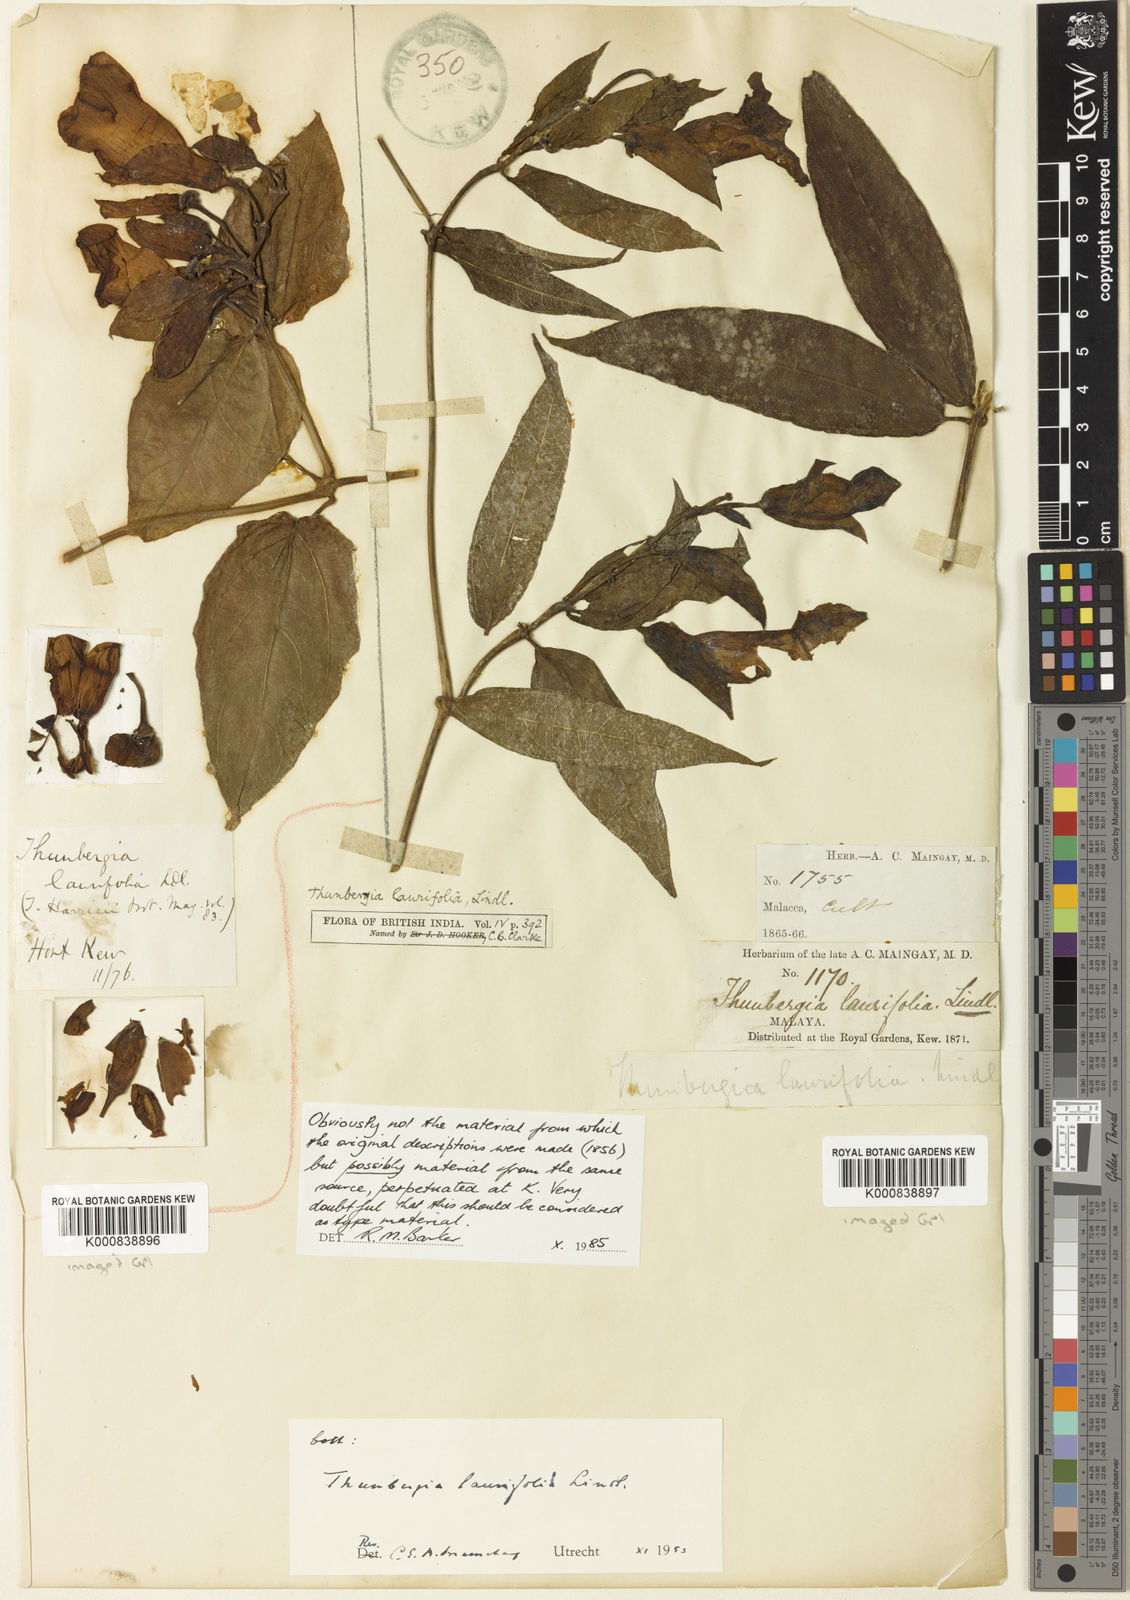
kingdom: Plantae
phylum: Tracheophyta
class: Magnoliopsida
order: Lamiales
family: Acanthaceae
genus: Thunbergia
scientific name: Thunbergia laurifolia
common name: Laurel-leaved thunbergia
